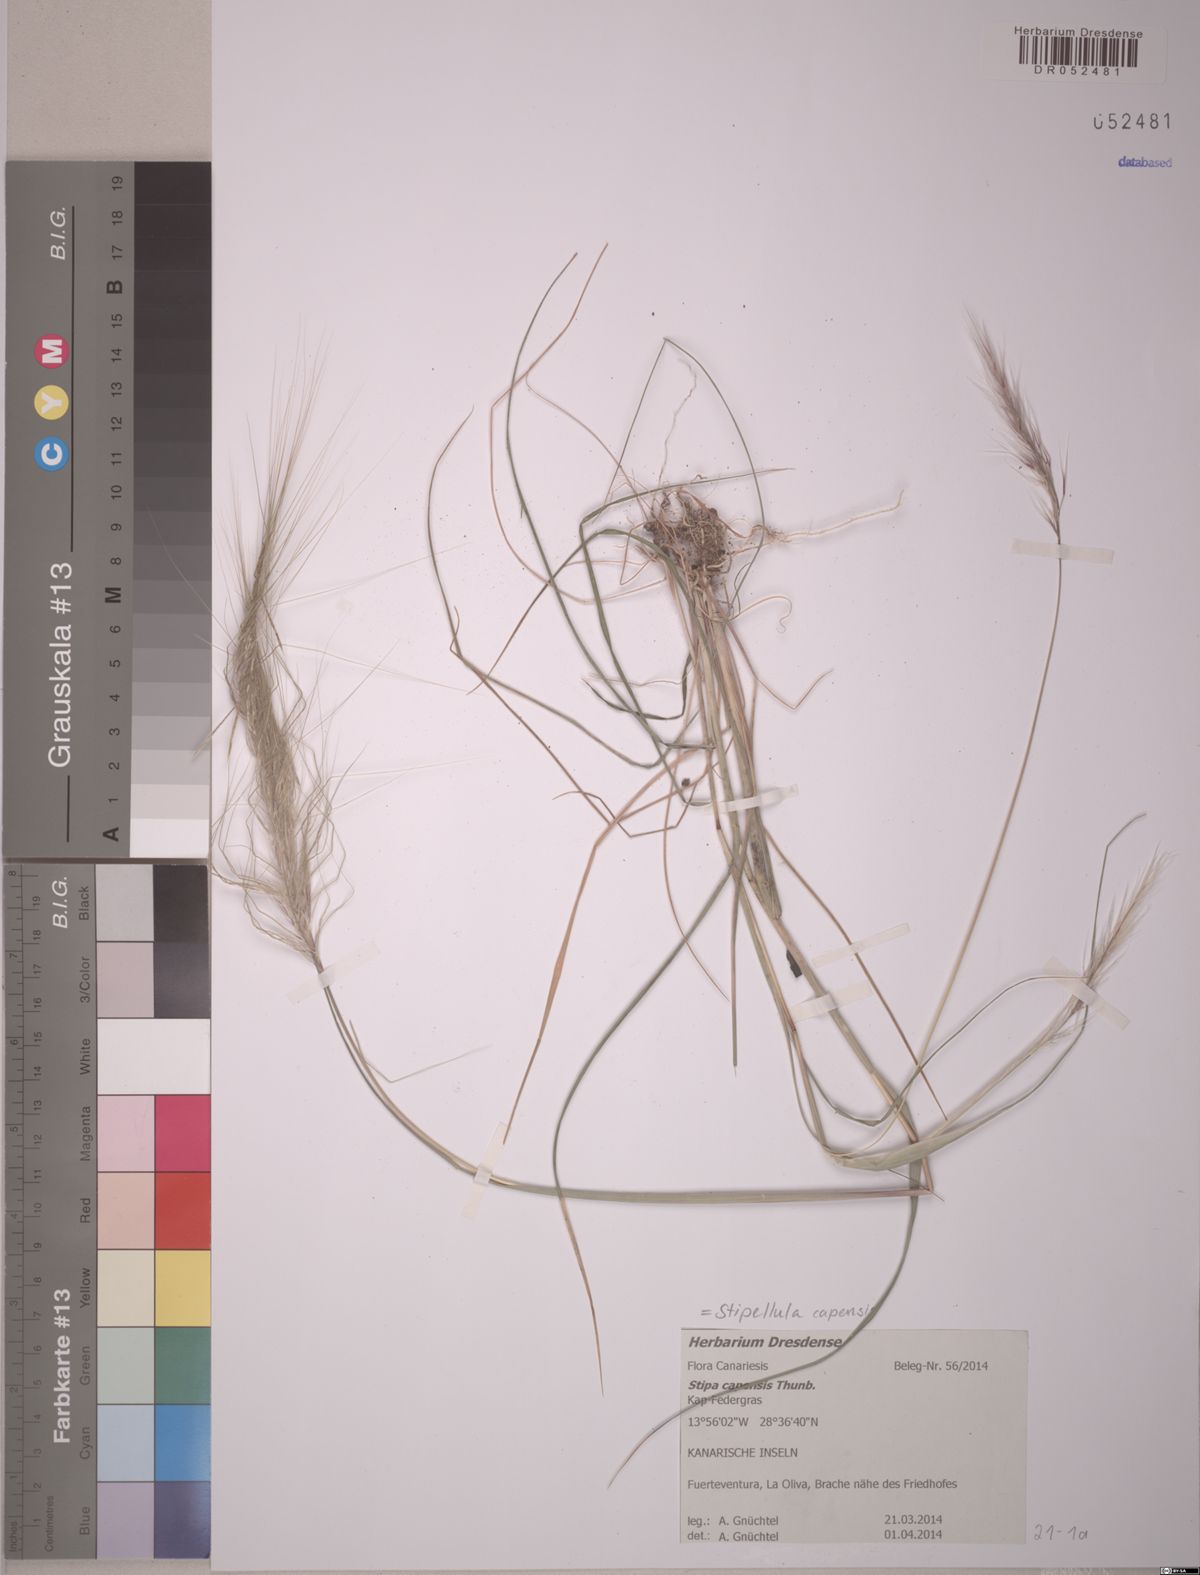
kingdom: Plantae
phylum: Tracheophyta
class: Liliopsida
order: Poales
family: Poaceae
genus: Stipellula
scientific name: Stipellula capensis
